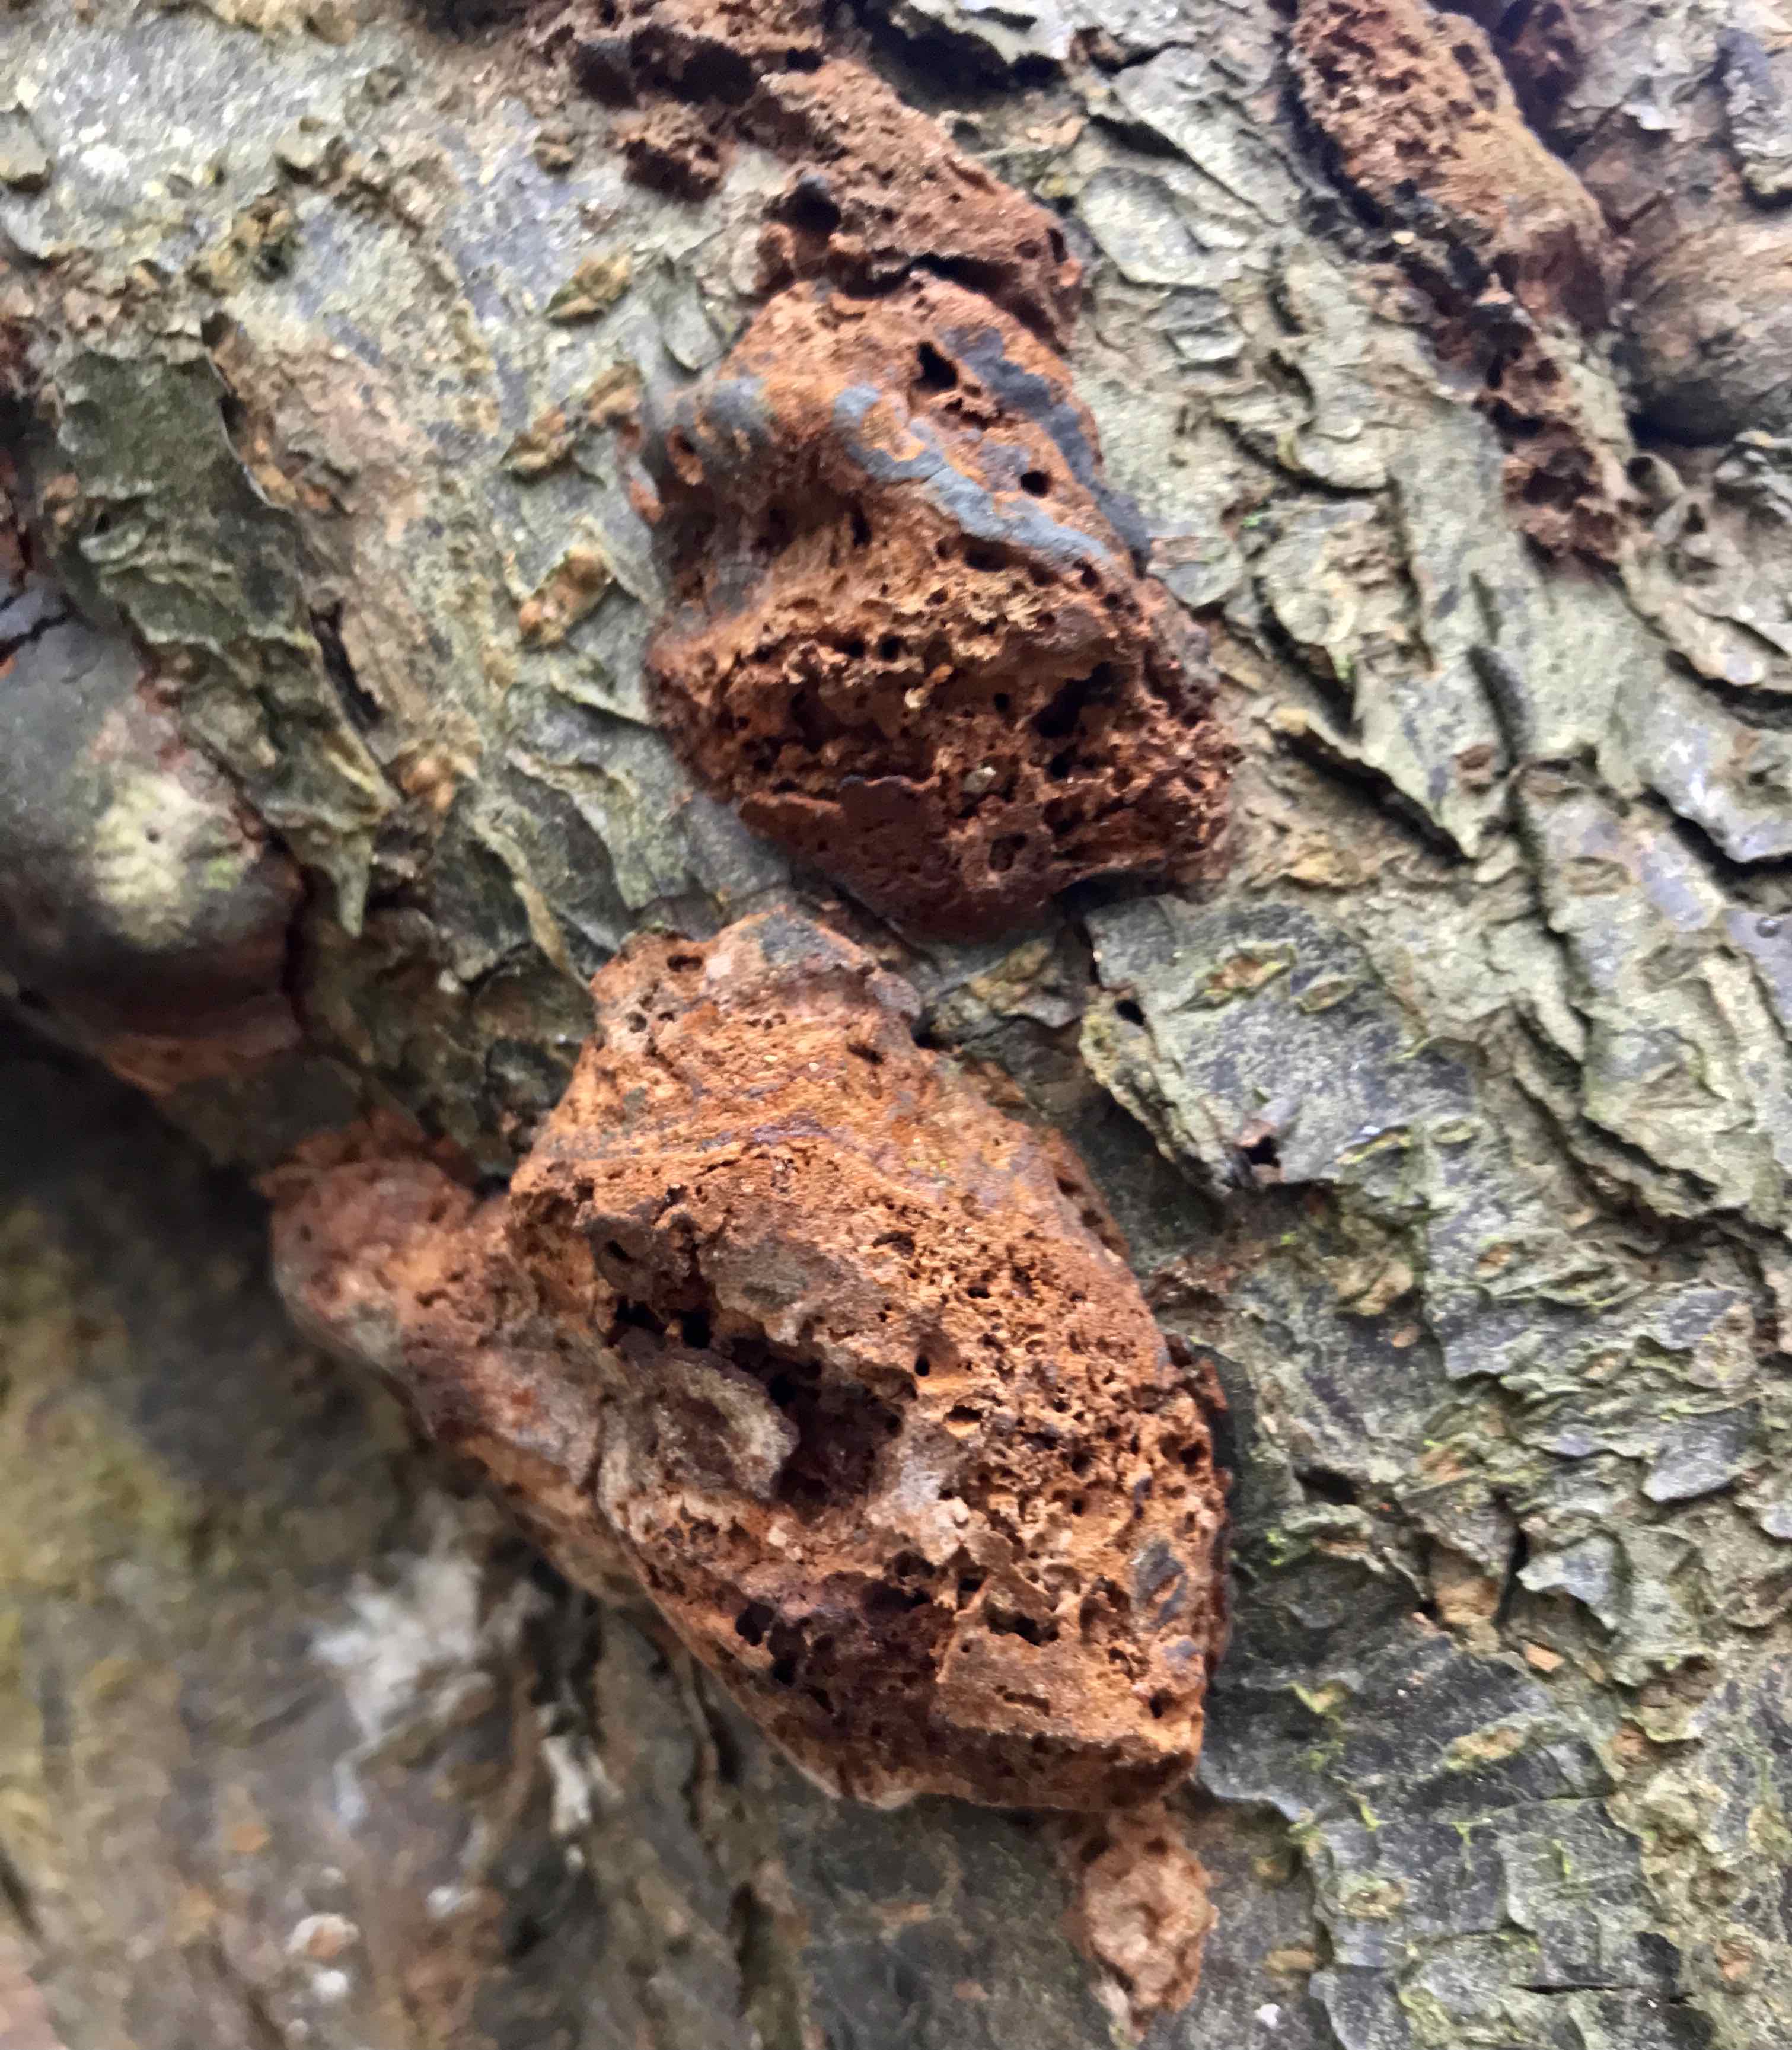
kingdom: Fungi
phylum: Basidiomycota
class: Agaricomycetes
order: Hymenochaetales
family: Hymenochaetaceae
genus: Phellinus
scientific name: Phellinus pomaceus
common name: blomme-ildporesvamp
